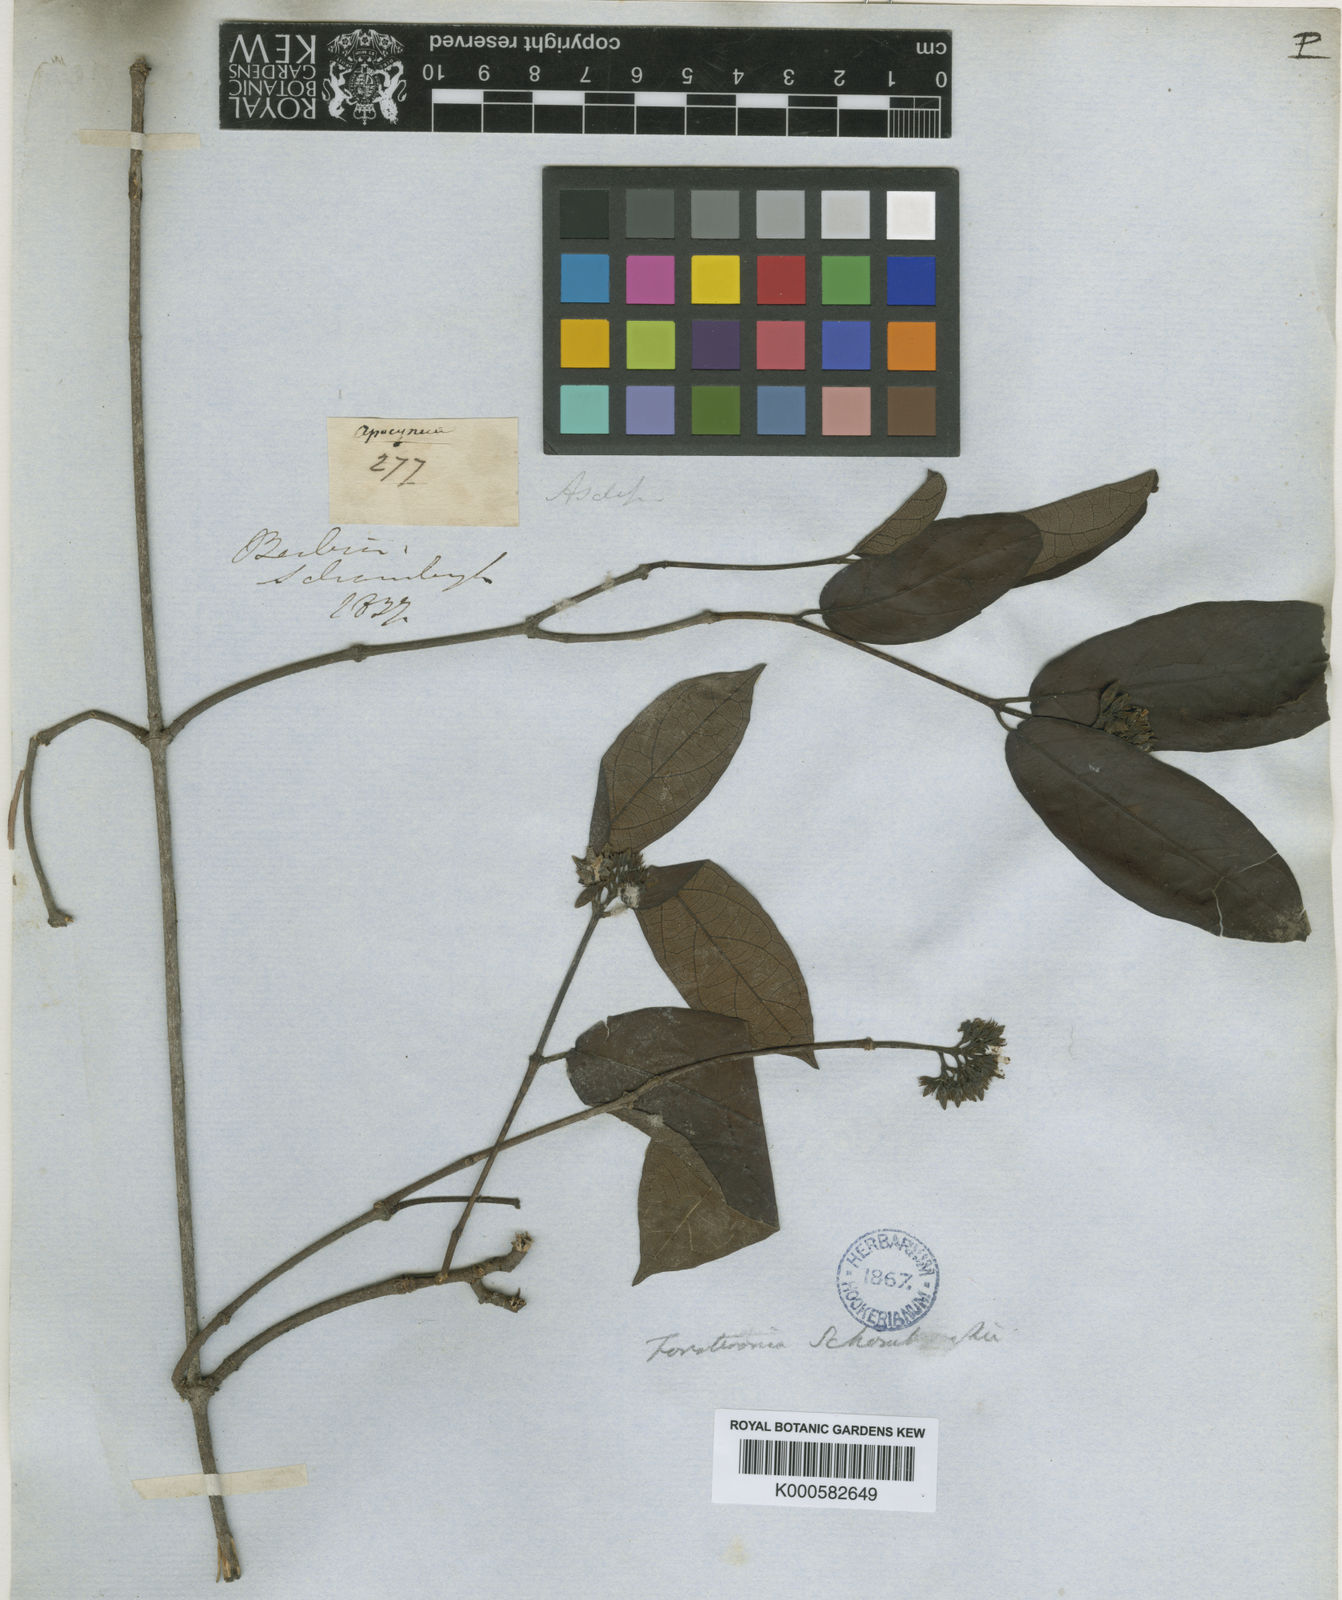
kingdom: Plantae
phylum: Tracheophyta
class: Magnoliopsida
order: Gentianales
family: Apocynaceae
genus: Forsteronia
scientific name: Forsteronia schomburgkii
